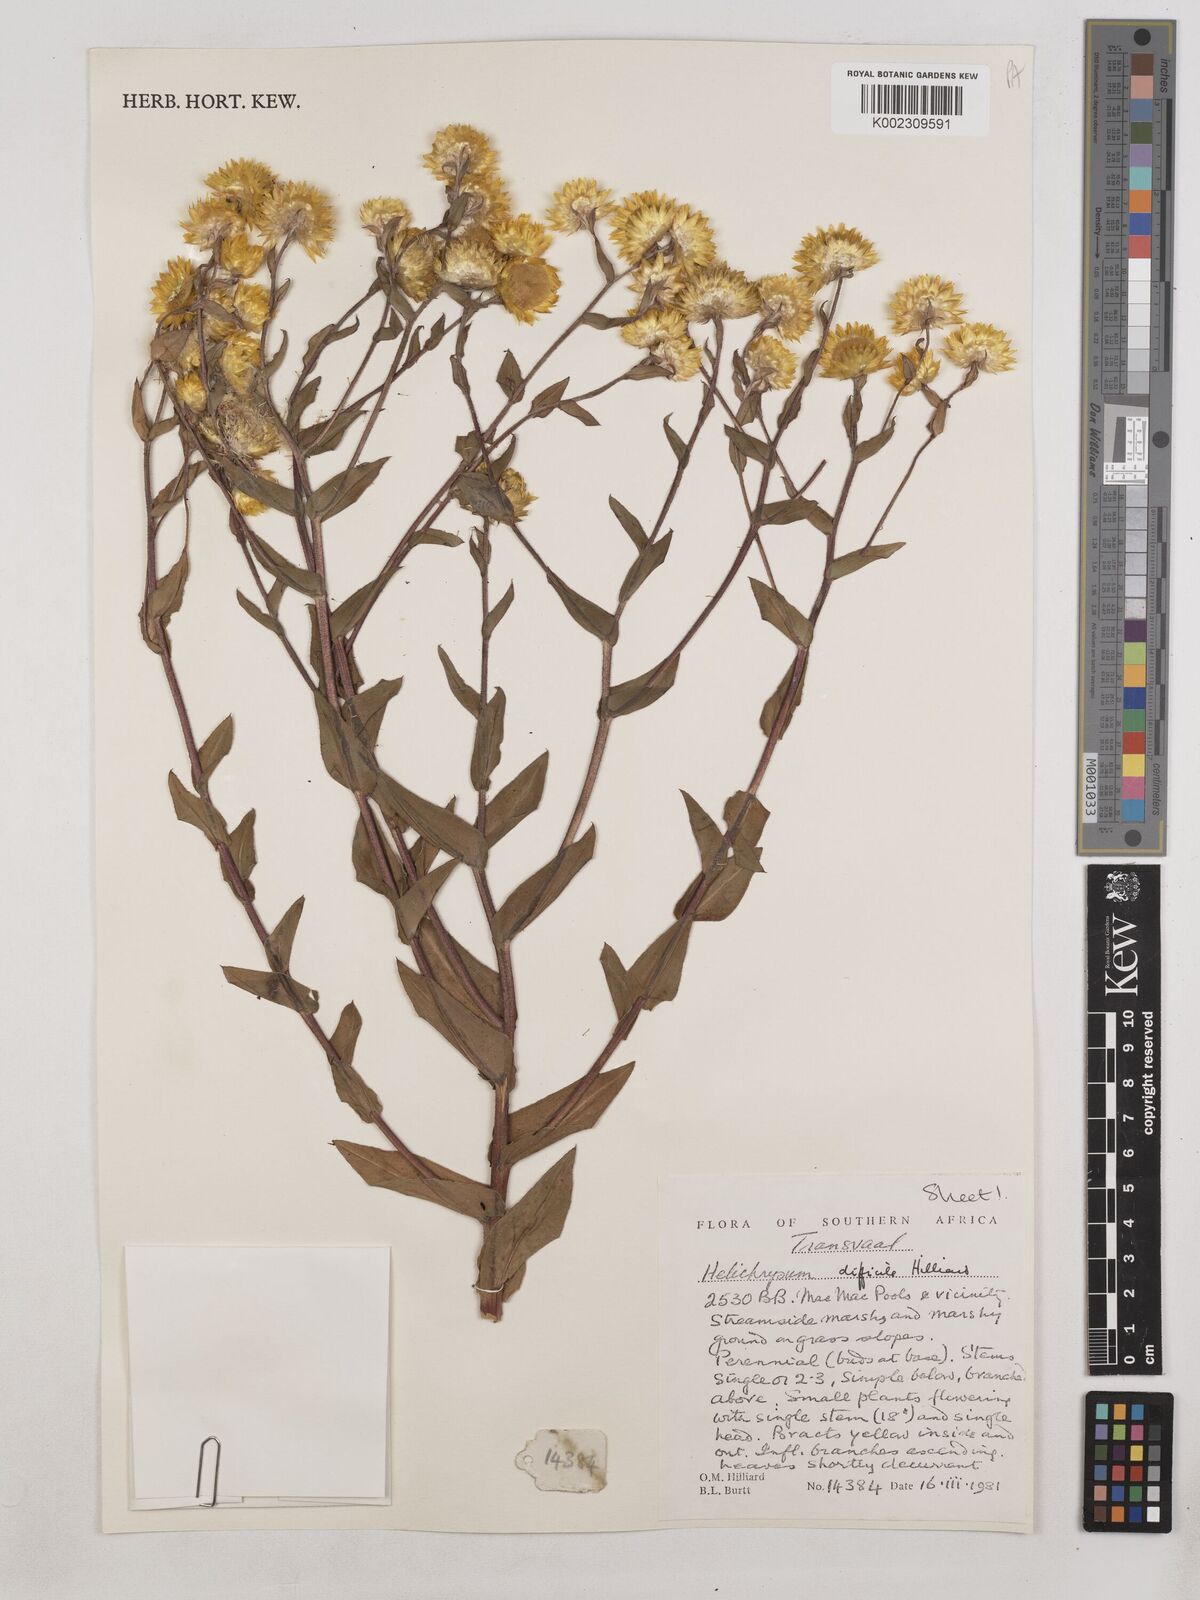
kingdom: Plantae
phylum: Tracheophyta
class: Magnoliopsida
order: Asterales
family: Asteraceae
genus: Helichrysum
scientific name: Helichrysum difficile
